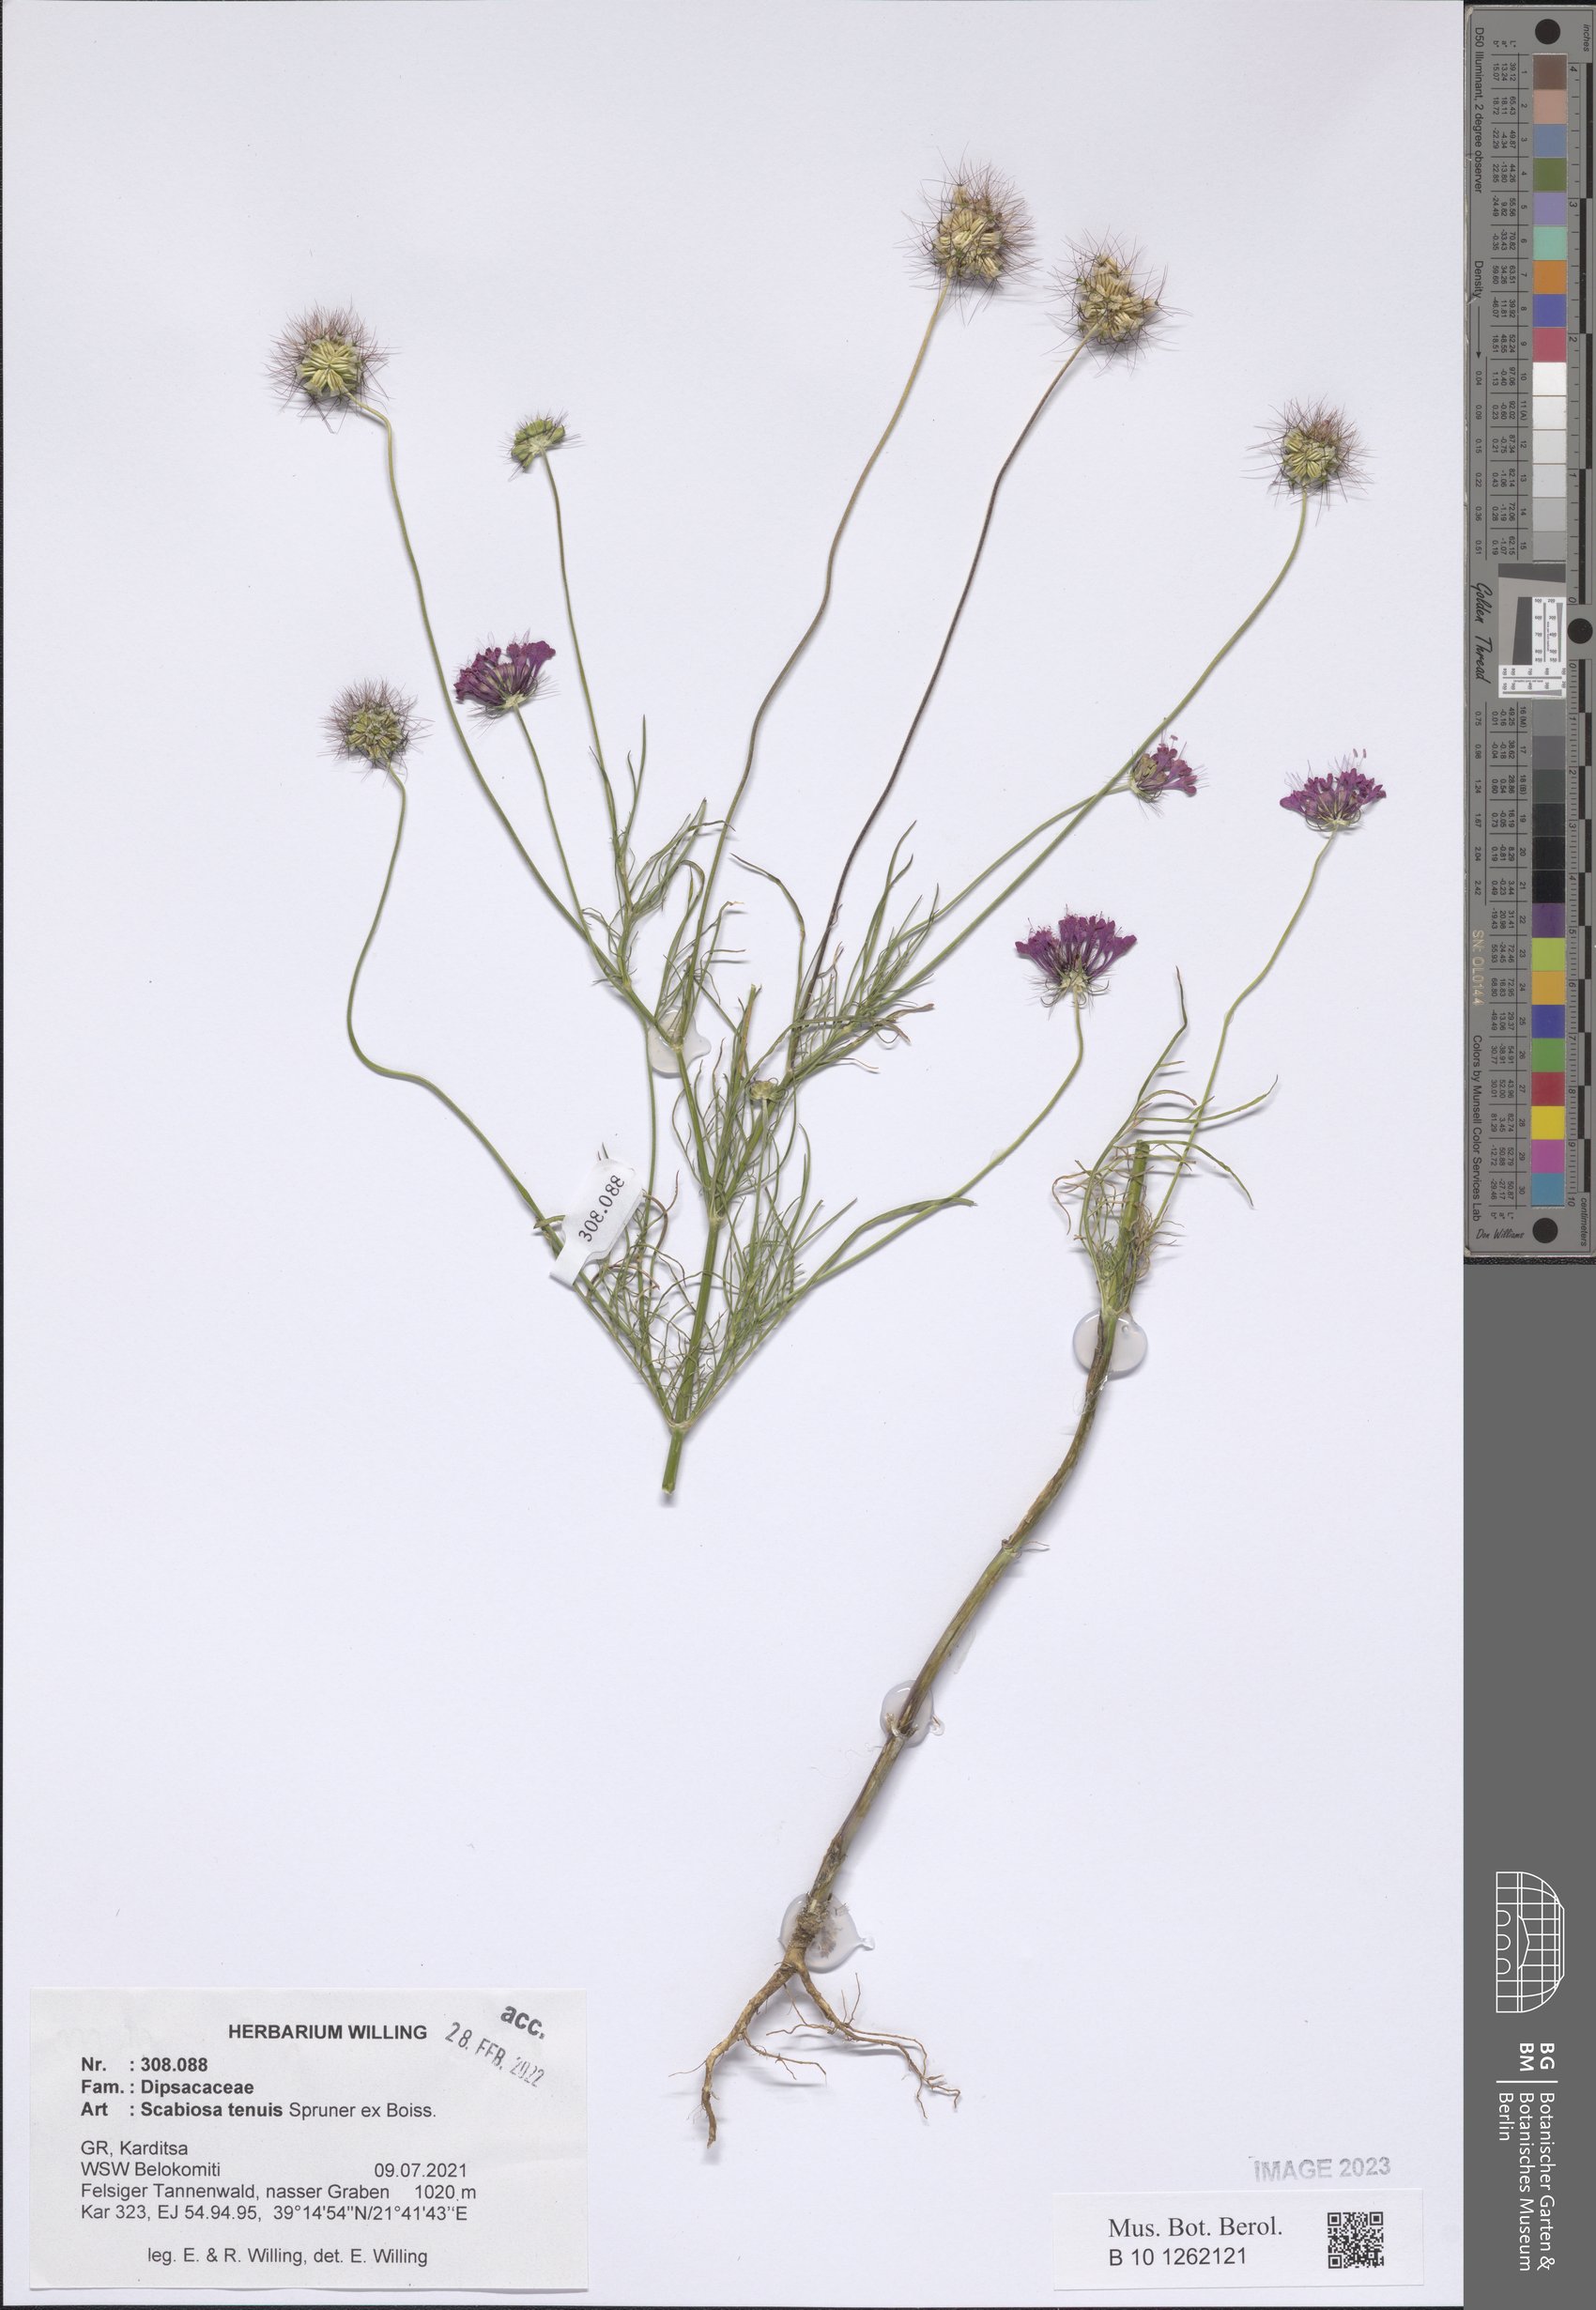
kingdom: Plantae
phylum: Tracheophyta
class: Magnoliopsida
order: Dipsacales
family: Caprifoliaceae
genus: Scabiosa
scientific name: Scabiosa tenuis
